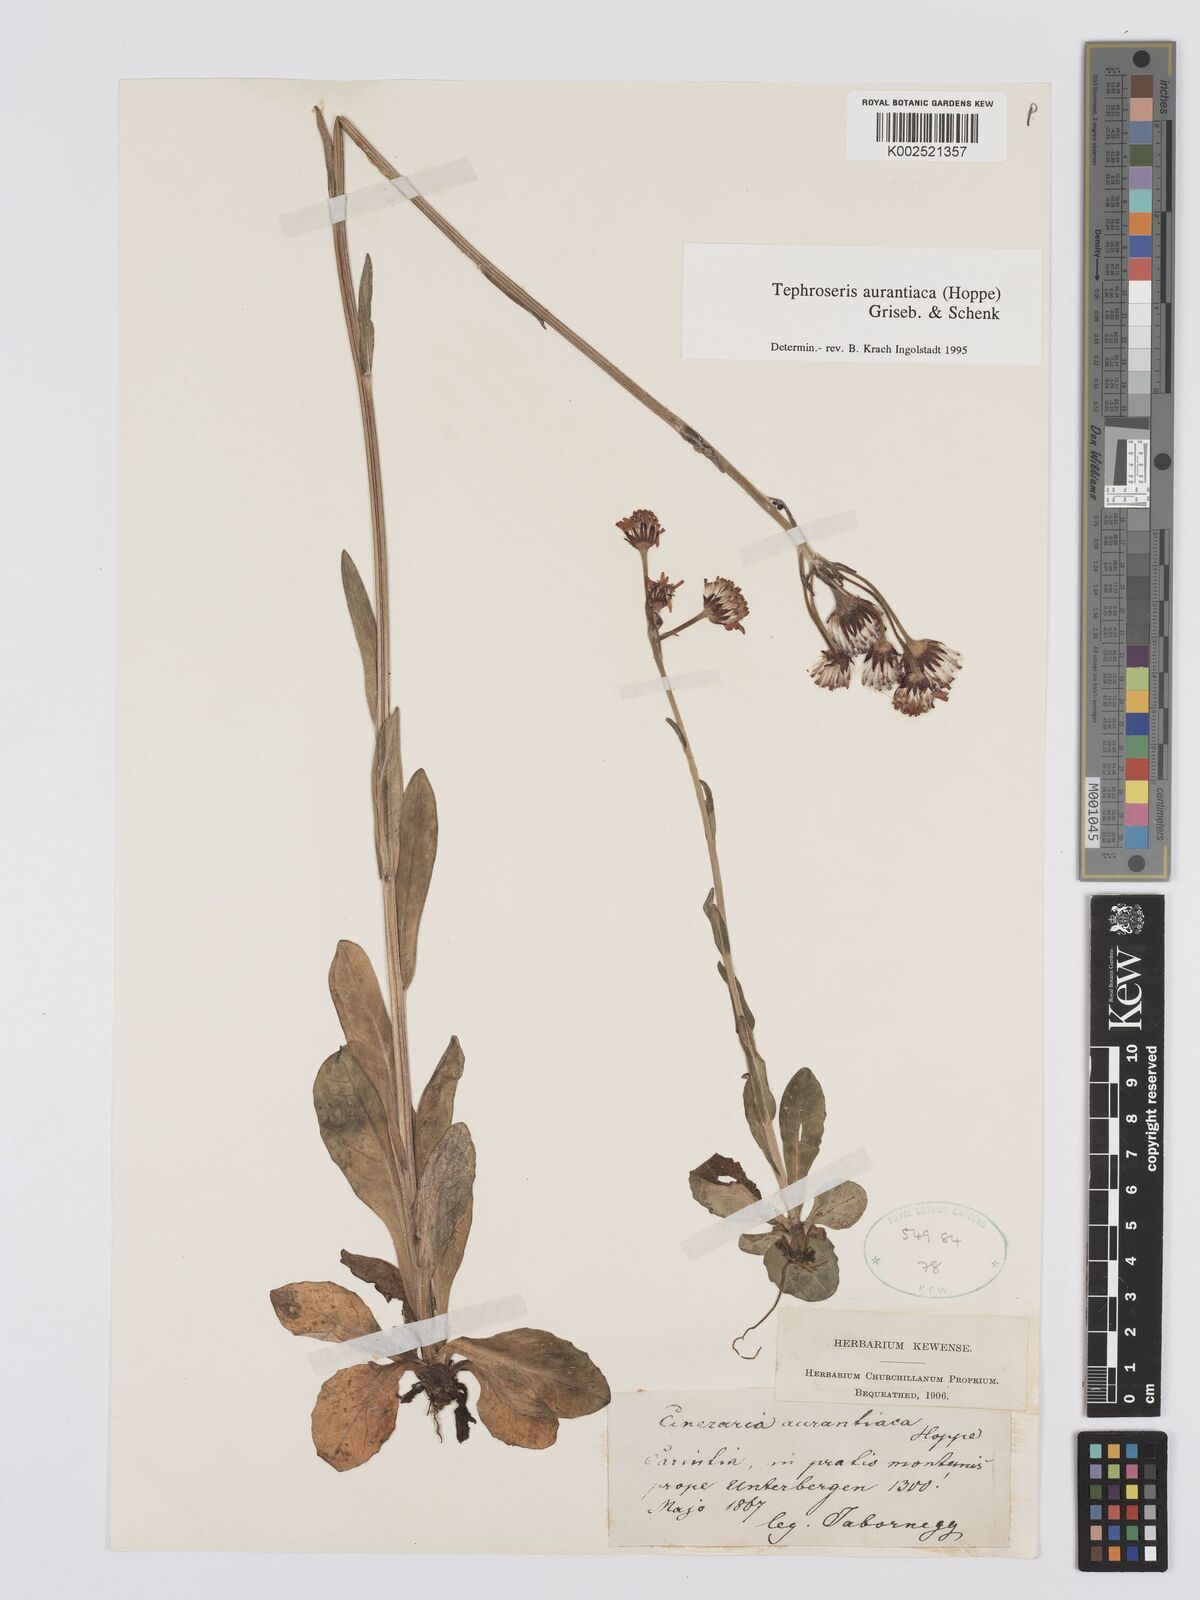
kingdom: Plantae
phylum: Tracheophyta
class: Magnoliopsida
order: Asterales
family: Asteraceae
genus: Tephroseris
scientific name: Tephroseris aurantiaca
